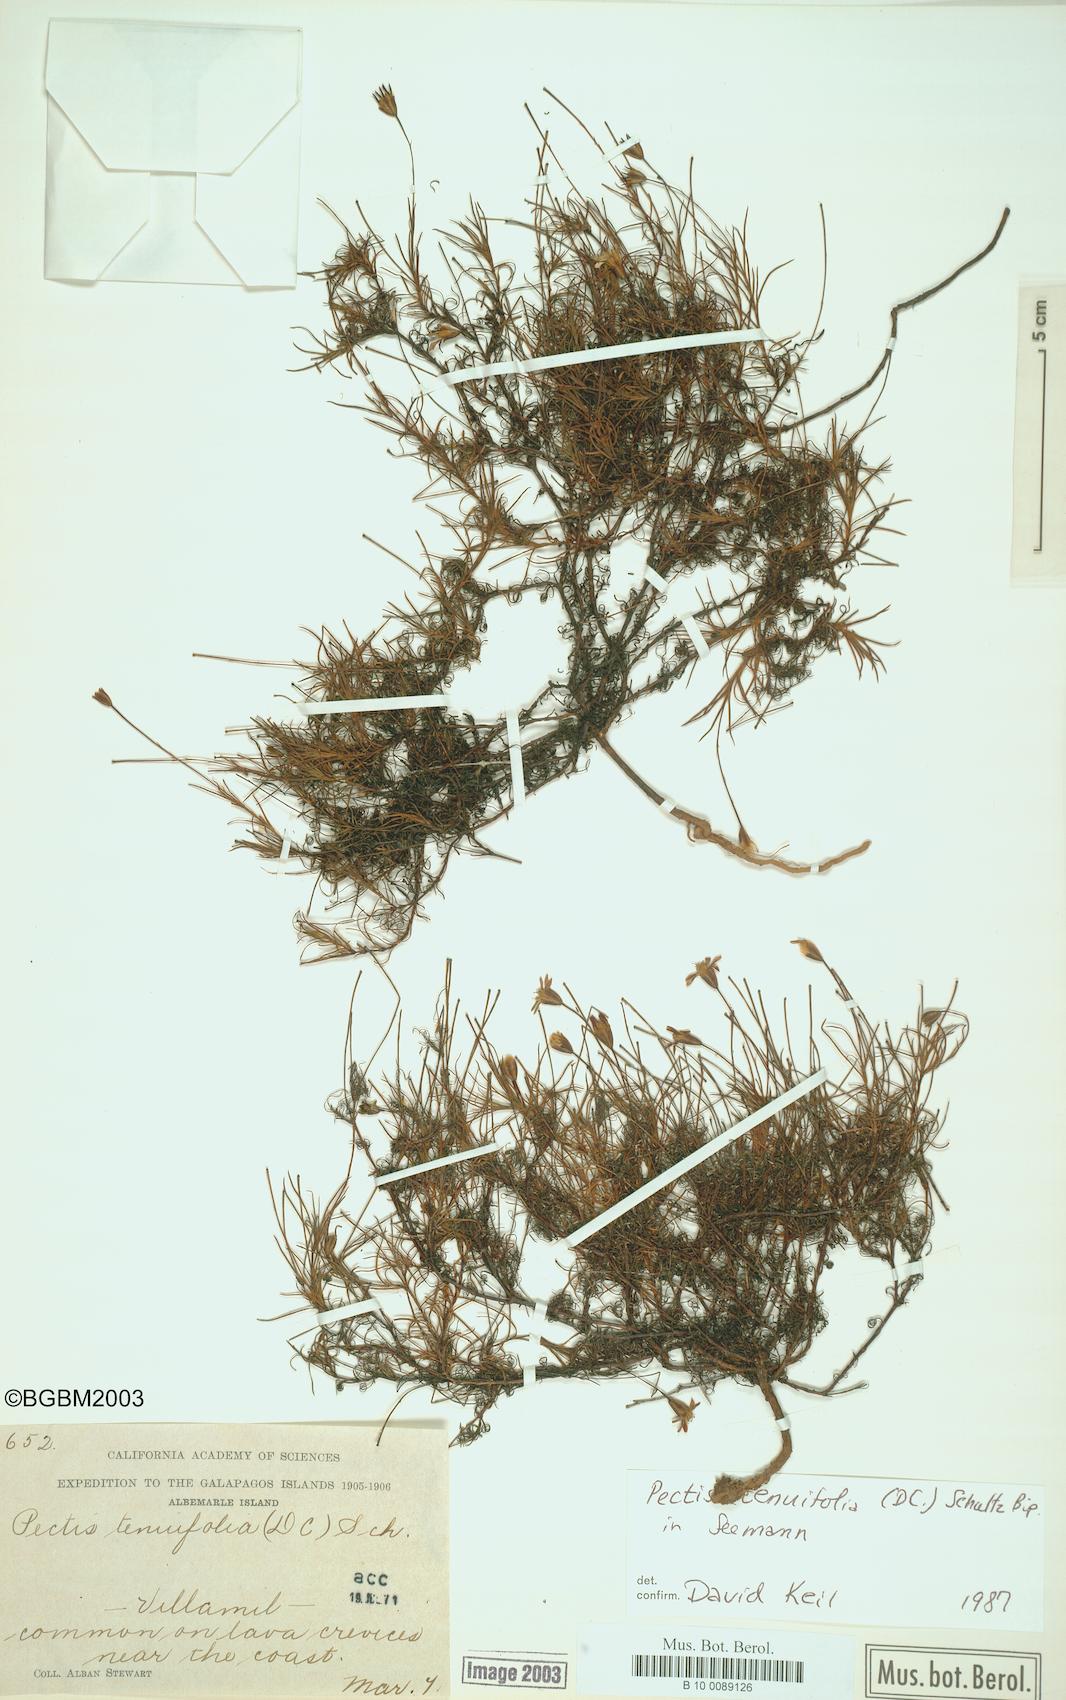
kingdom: Plantae
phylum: Tracheophyta
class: Magnoliopsida
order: Asterales
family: Asteraceae
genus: Pectis
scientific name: Pectis tenuifolia
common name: Oily pectis
